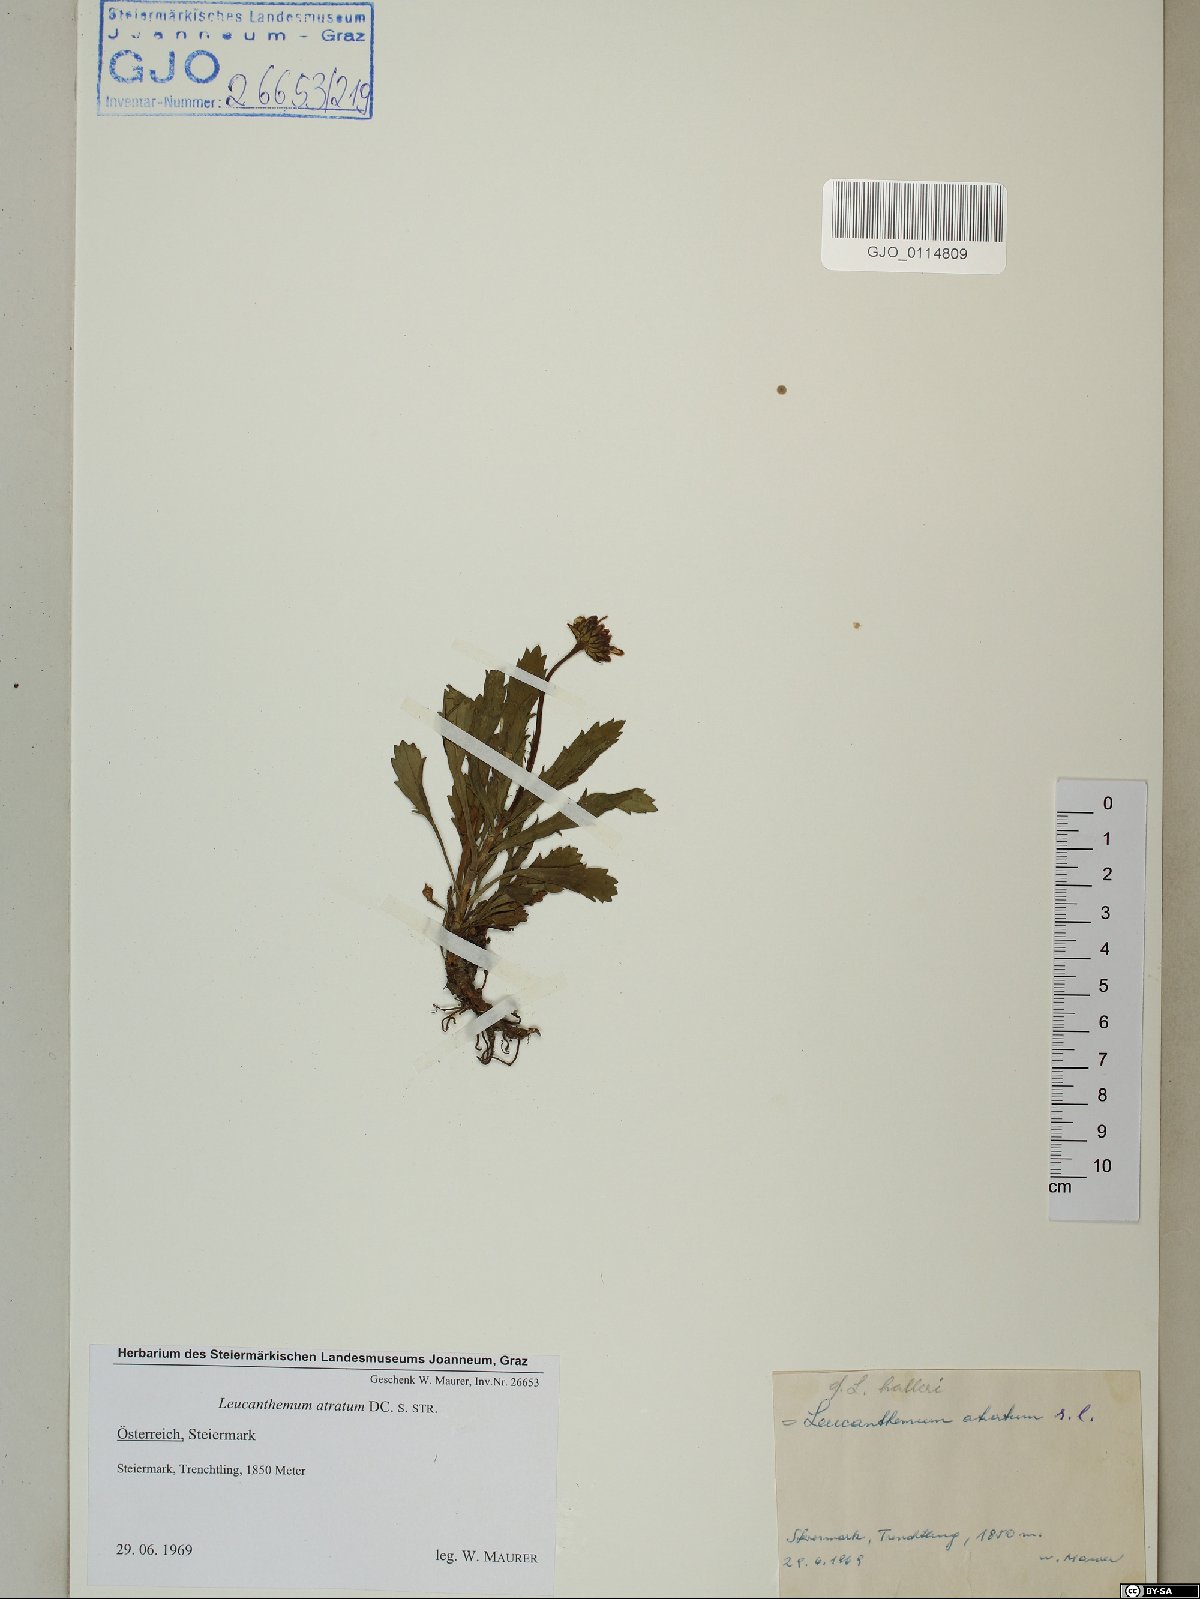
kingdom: Plantae
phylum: Tracheophyta
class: Magnoliopsida
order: Asterales
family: Asteraceae
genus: Leucanthemum
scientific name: Leucanthemum atratum
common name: Saw-leaved moon-daisy
